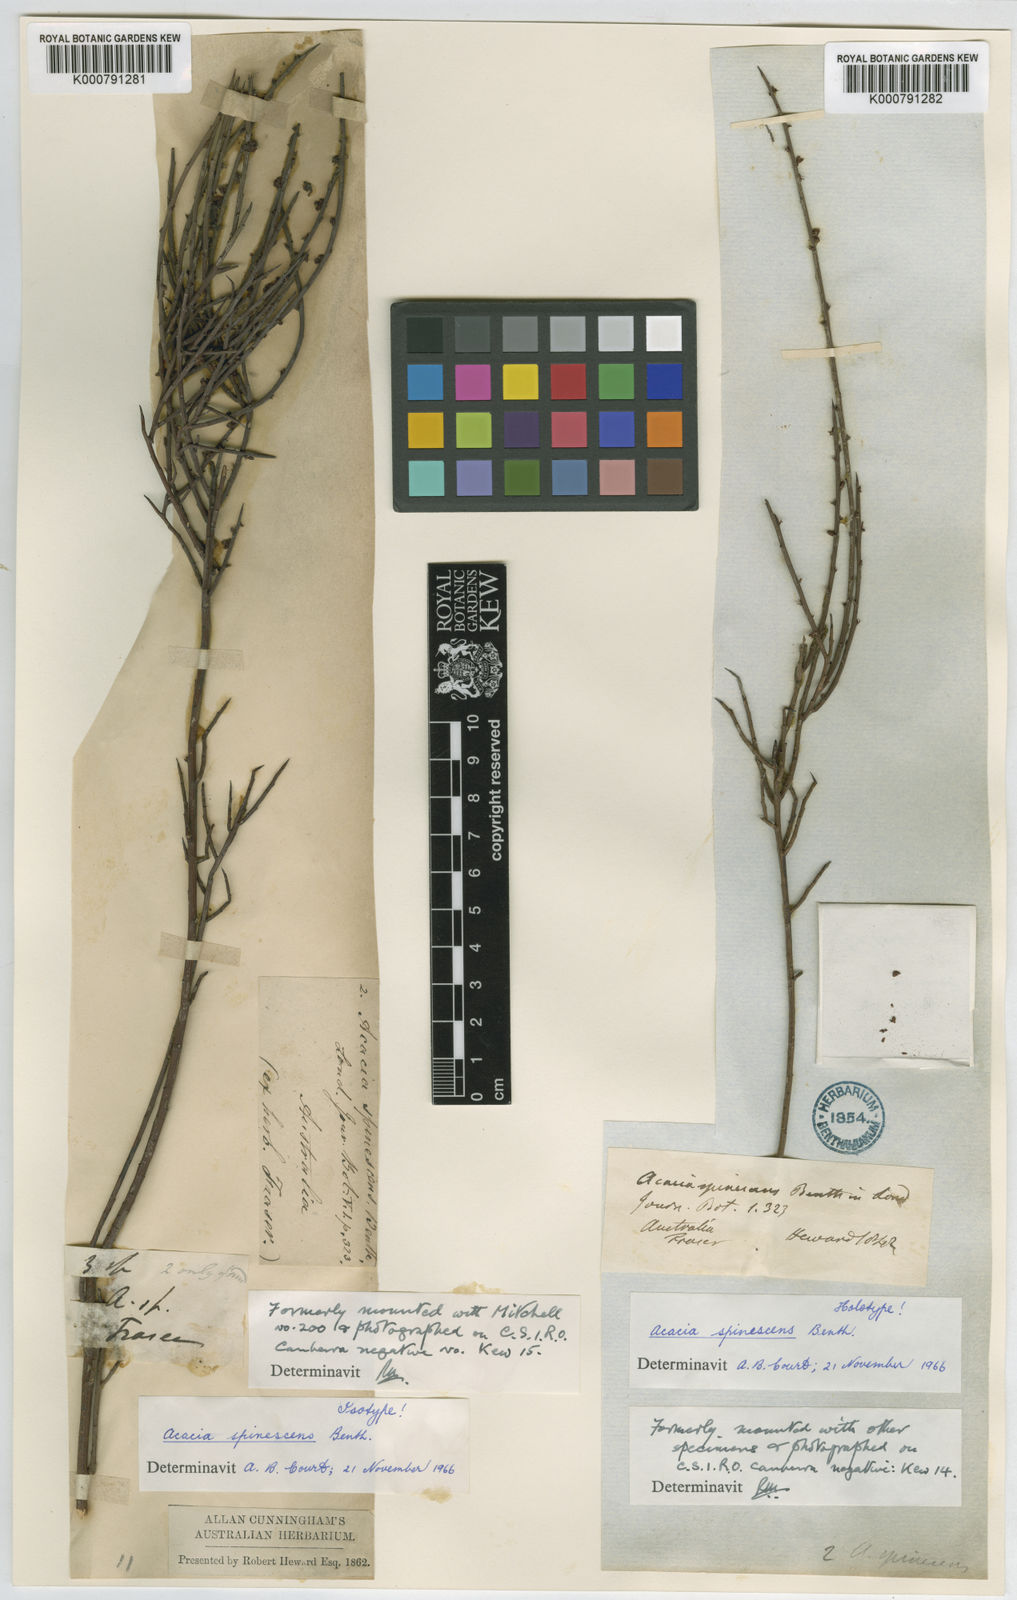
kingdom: Plantae
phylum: Tracheophyta
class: Magnoliopsida
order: Fabales
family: Fabaceae
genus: Acacia
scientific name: Acacia spinescens
